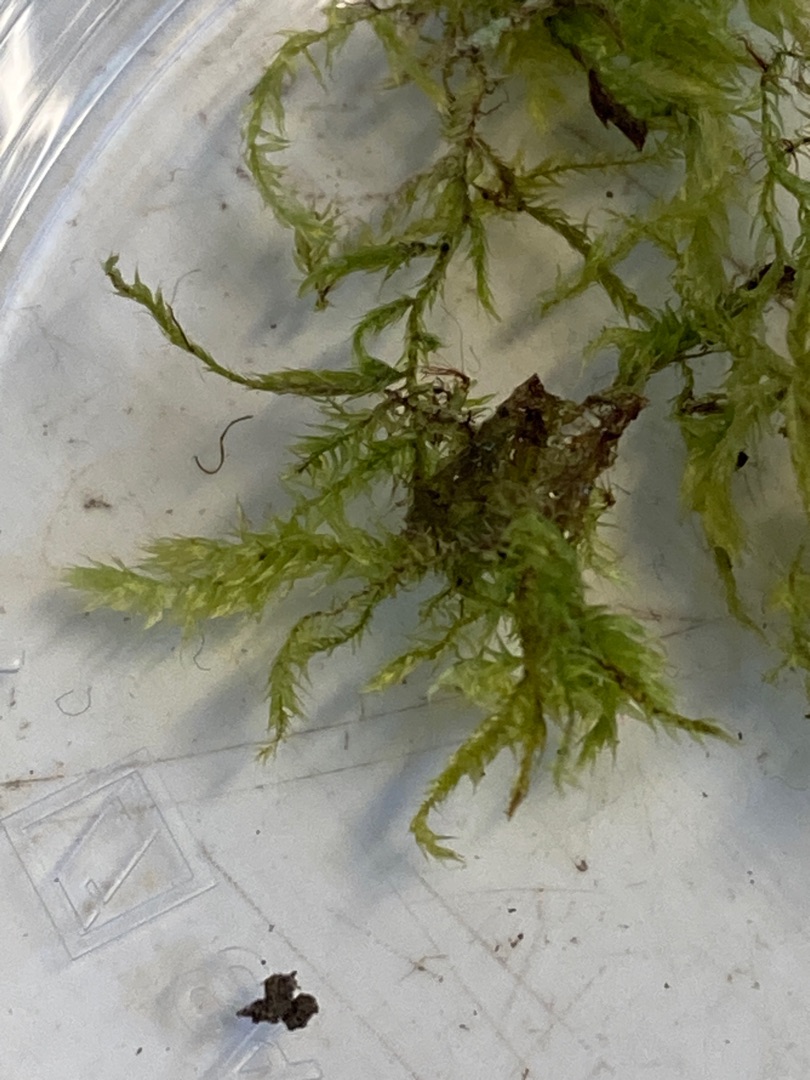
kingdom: Plantae
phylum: Bryophyta
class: Bryopsida
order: Hypnales
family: Brachytheciaceae
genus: Brachythecium
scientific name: Brachythecium rutabulum
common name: Almindelig kortkapsel
